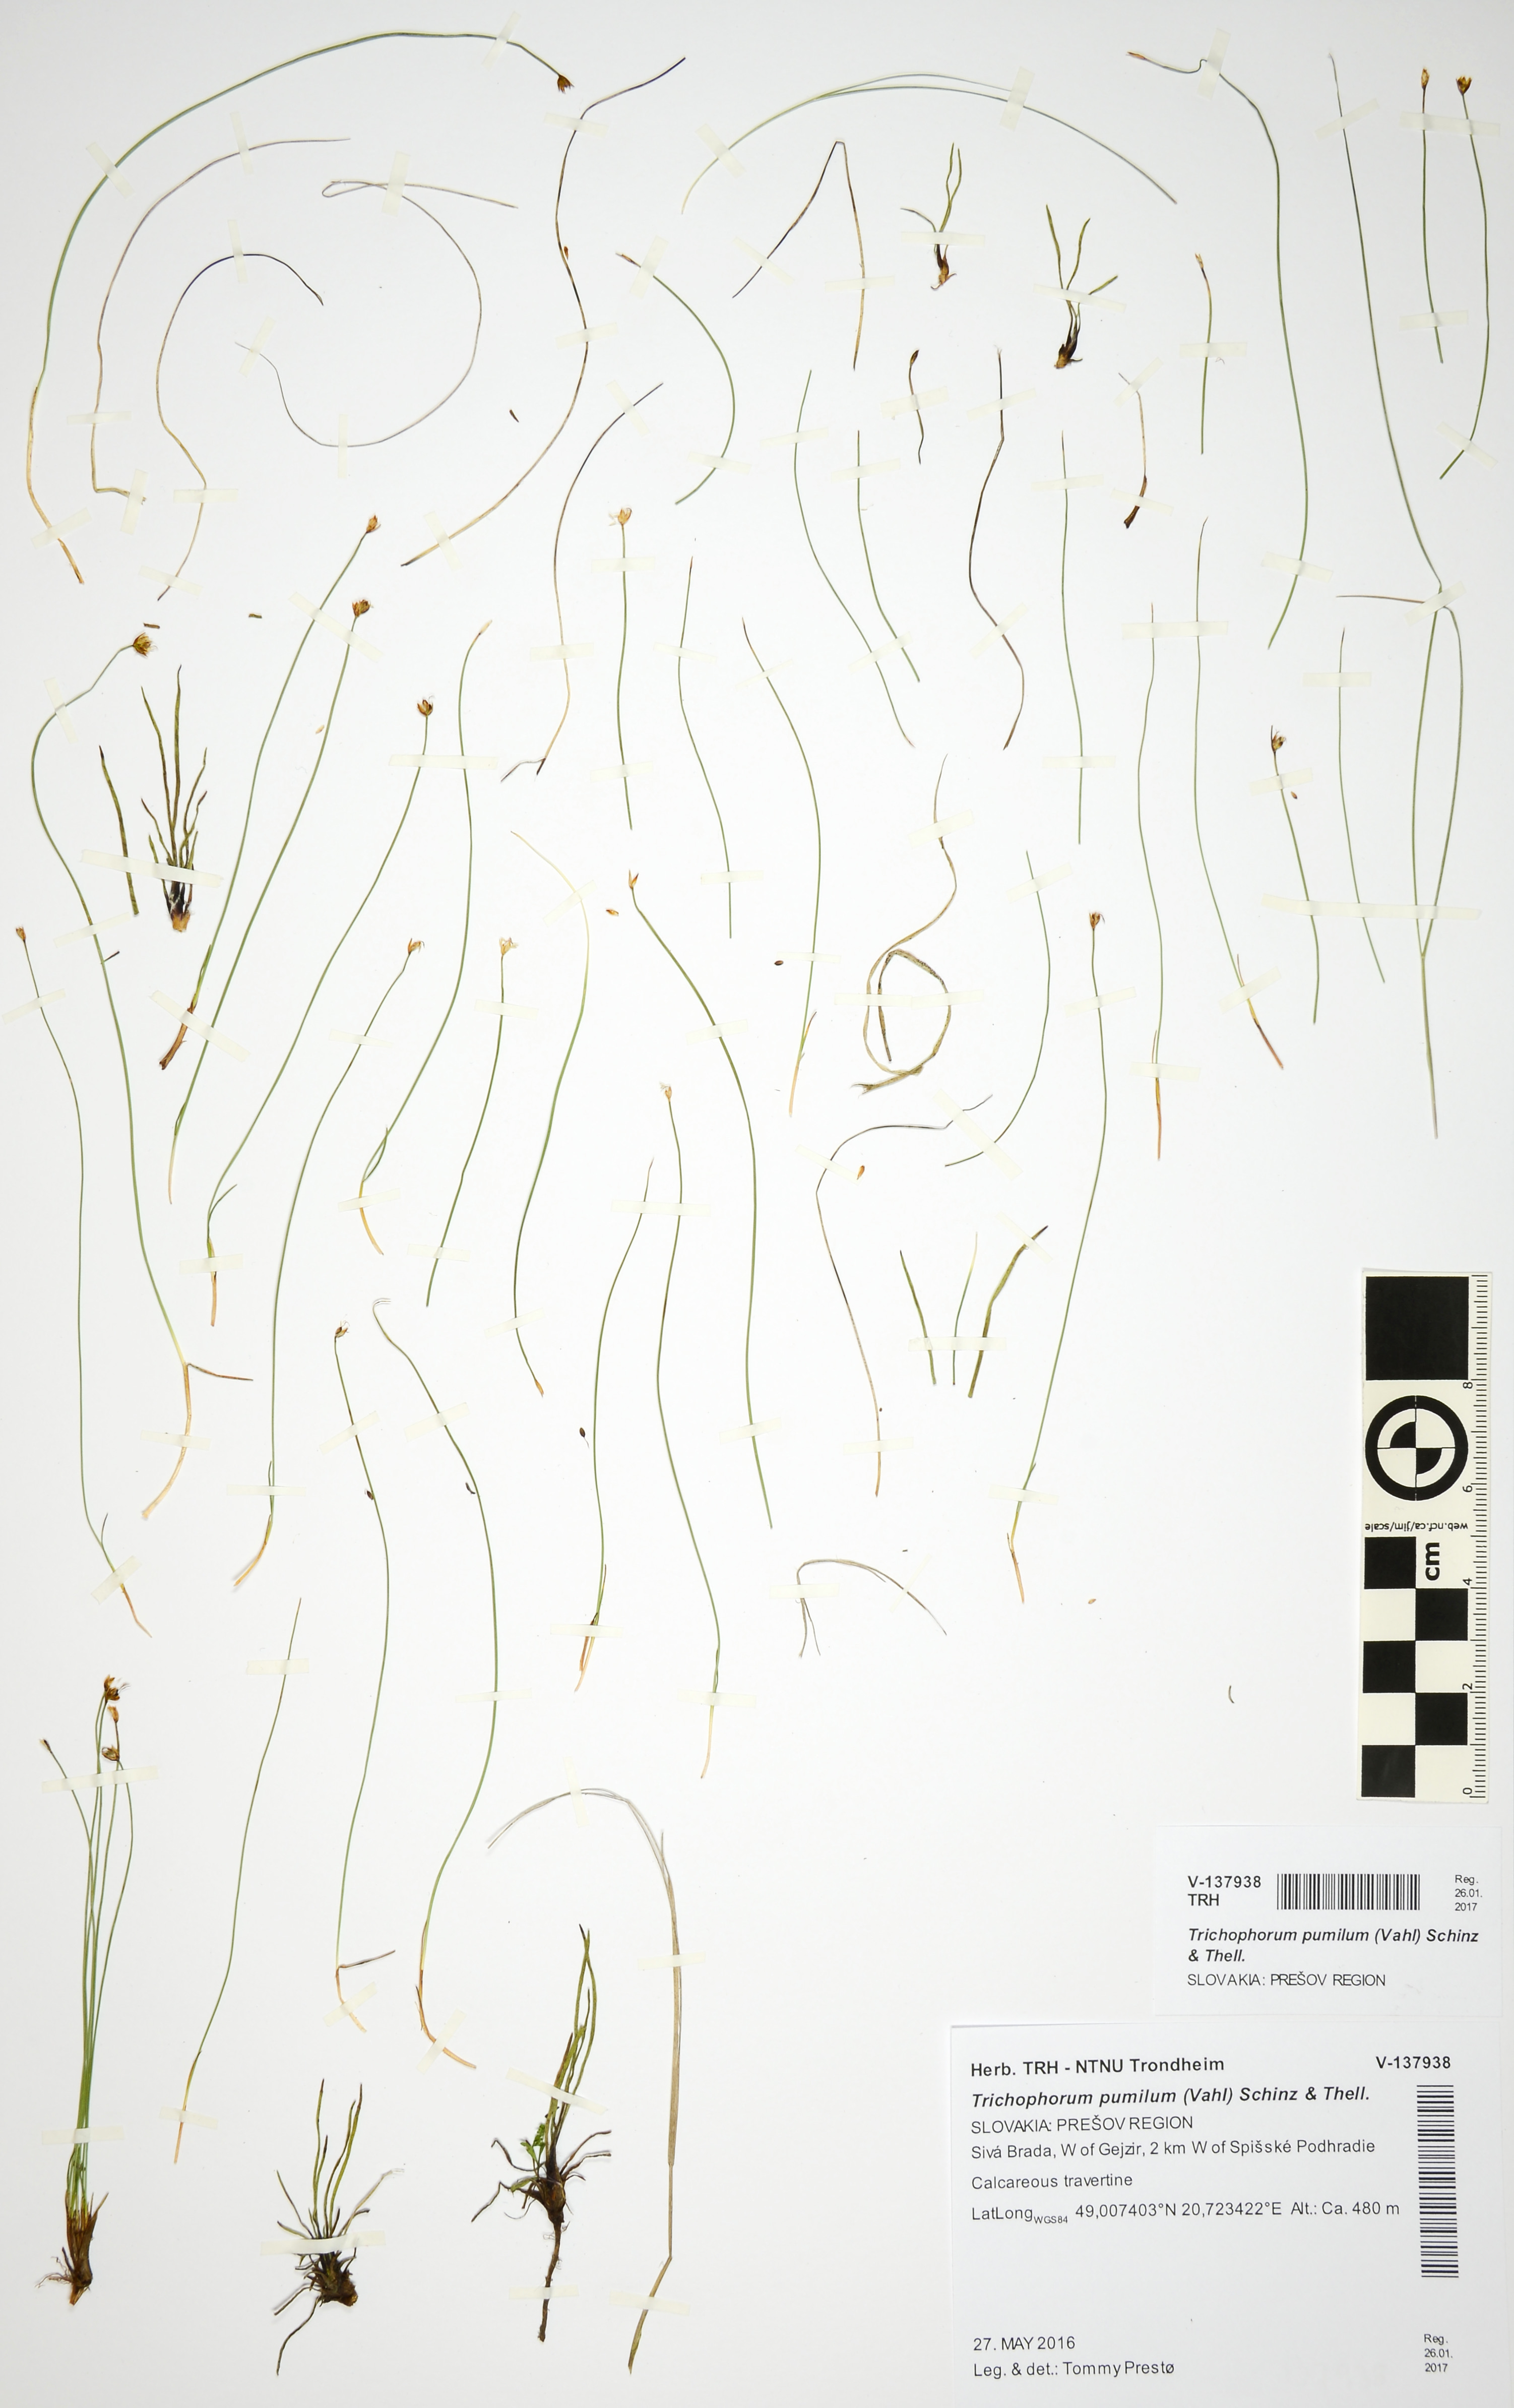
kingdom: Plantae
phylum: Tracheophyta
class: Liliopsida
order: Poales
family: Cyperaceae
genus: Trichophorum
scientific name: Trichophorum pumilum
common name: Rolland's bulrush
